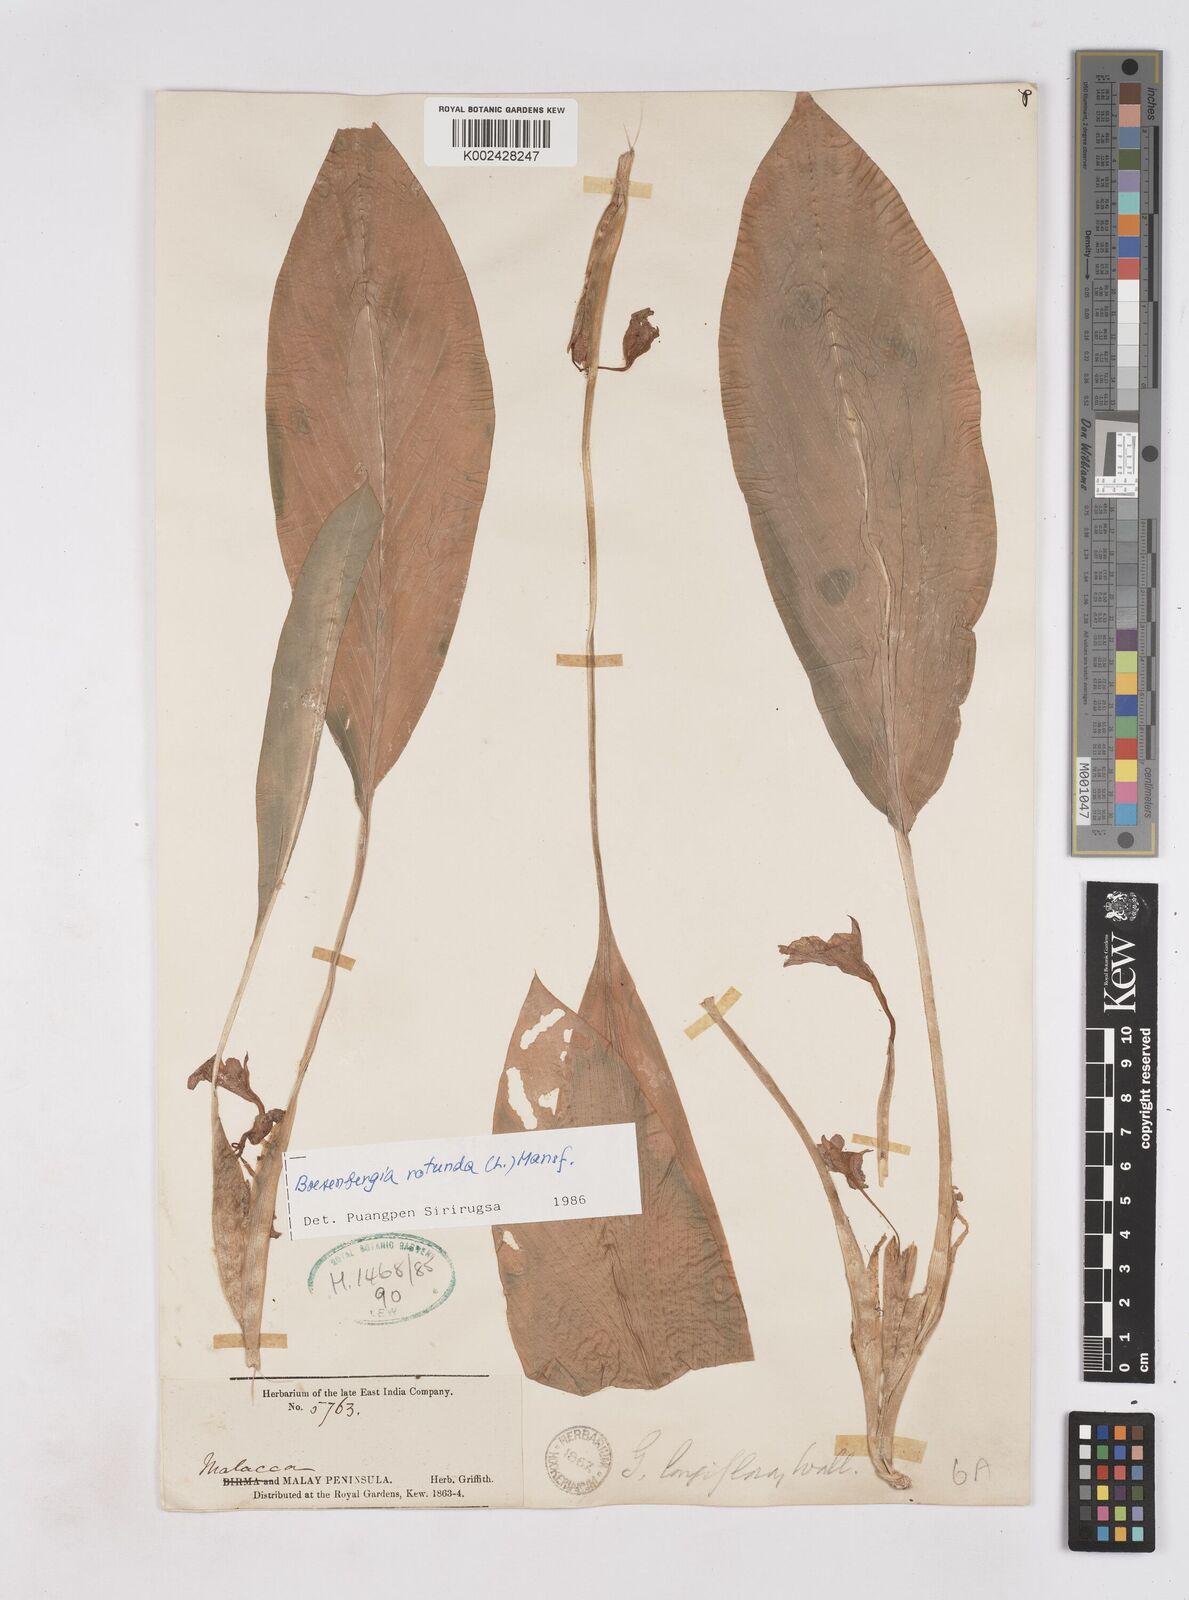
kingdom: Plantae
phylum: Tracheophyta
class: Liliopsida
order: Zingiberales
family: Zingiberaceae
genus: Boesenbergia
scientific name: Boesenbergia rotunda
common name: Chinese ginger
